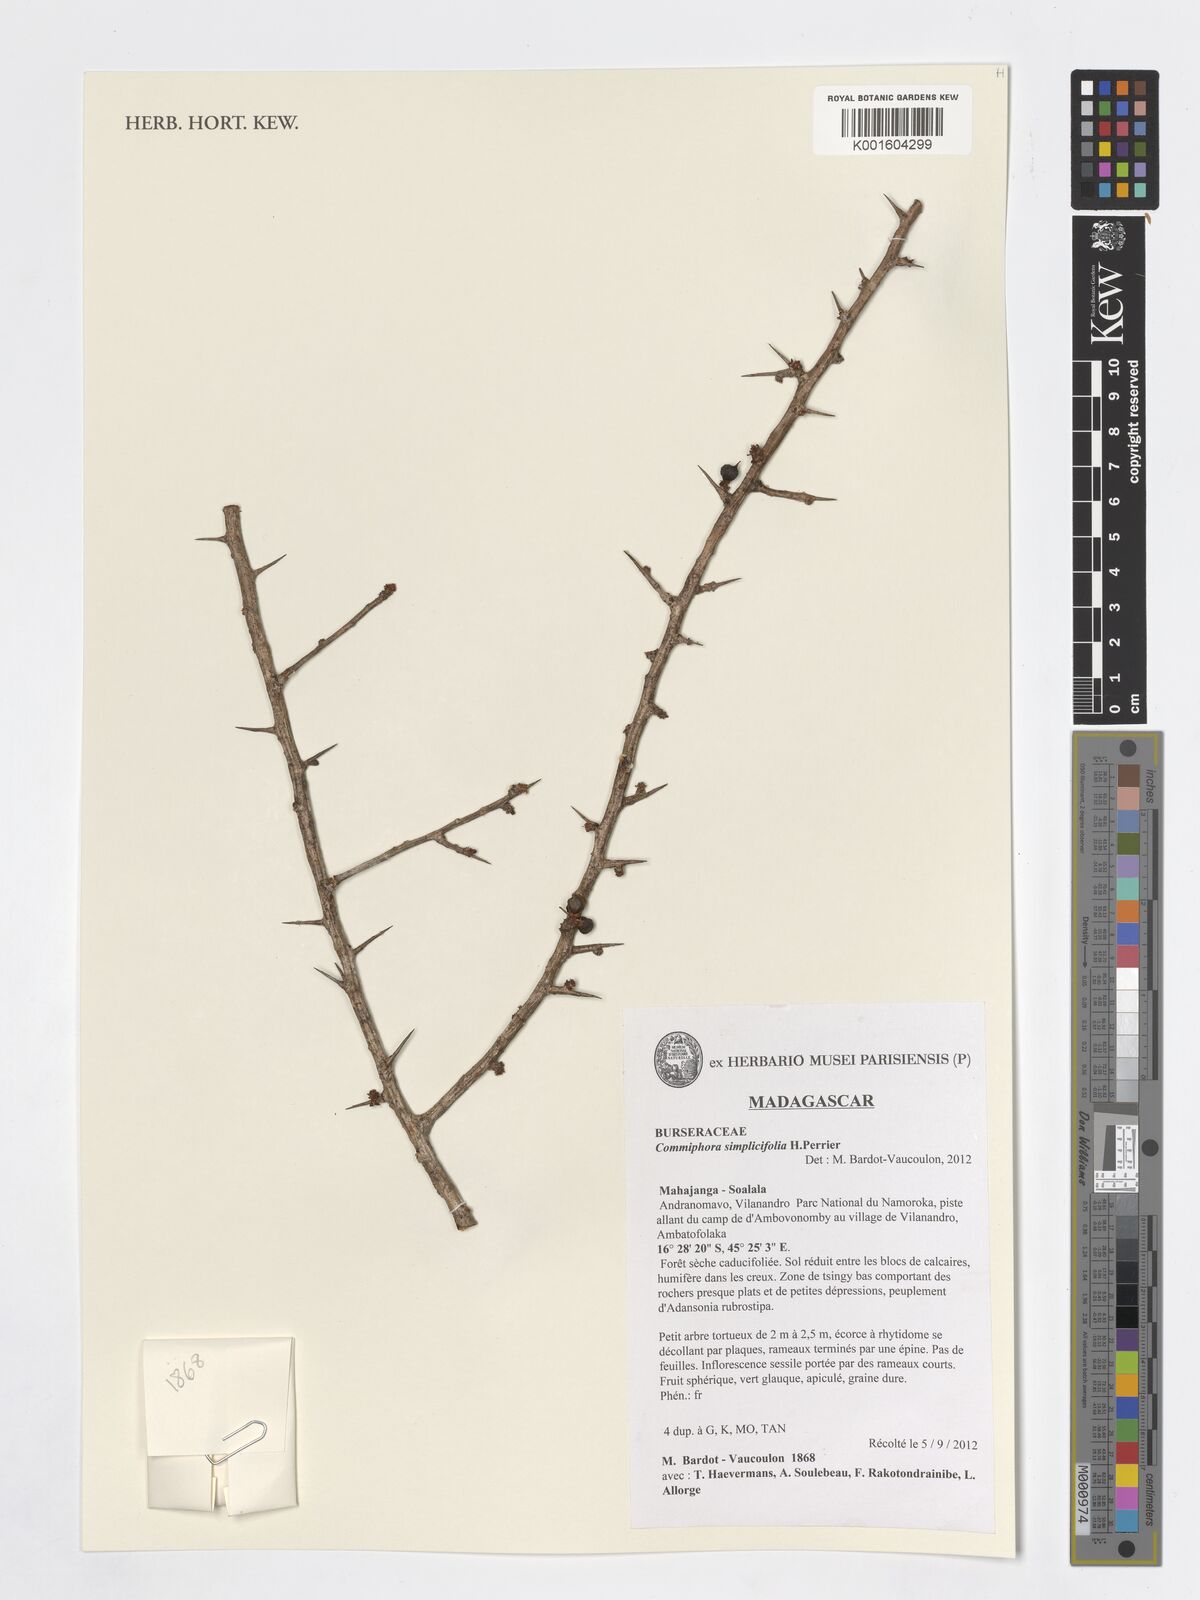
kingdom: Plantae
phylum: Tracheophyta
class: Magnoliopsida
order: Sapindales
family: Burseraceae
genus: Commiphora
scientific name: Commiphora simplicifolia
